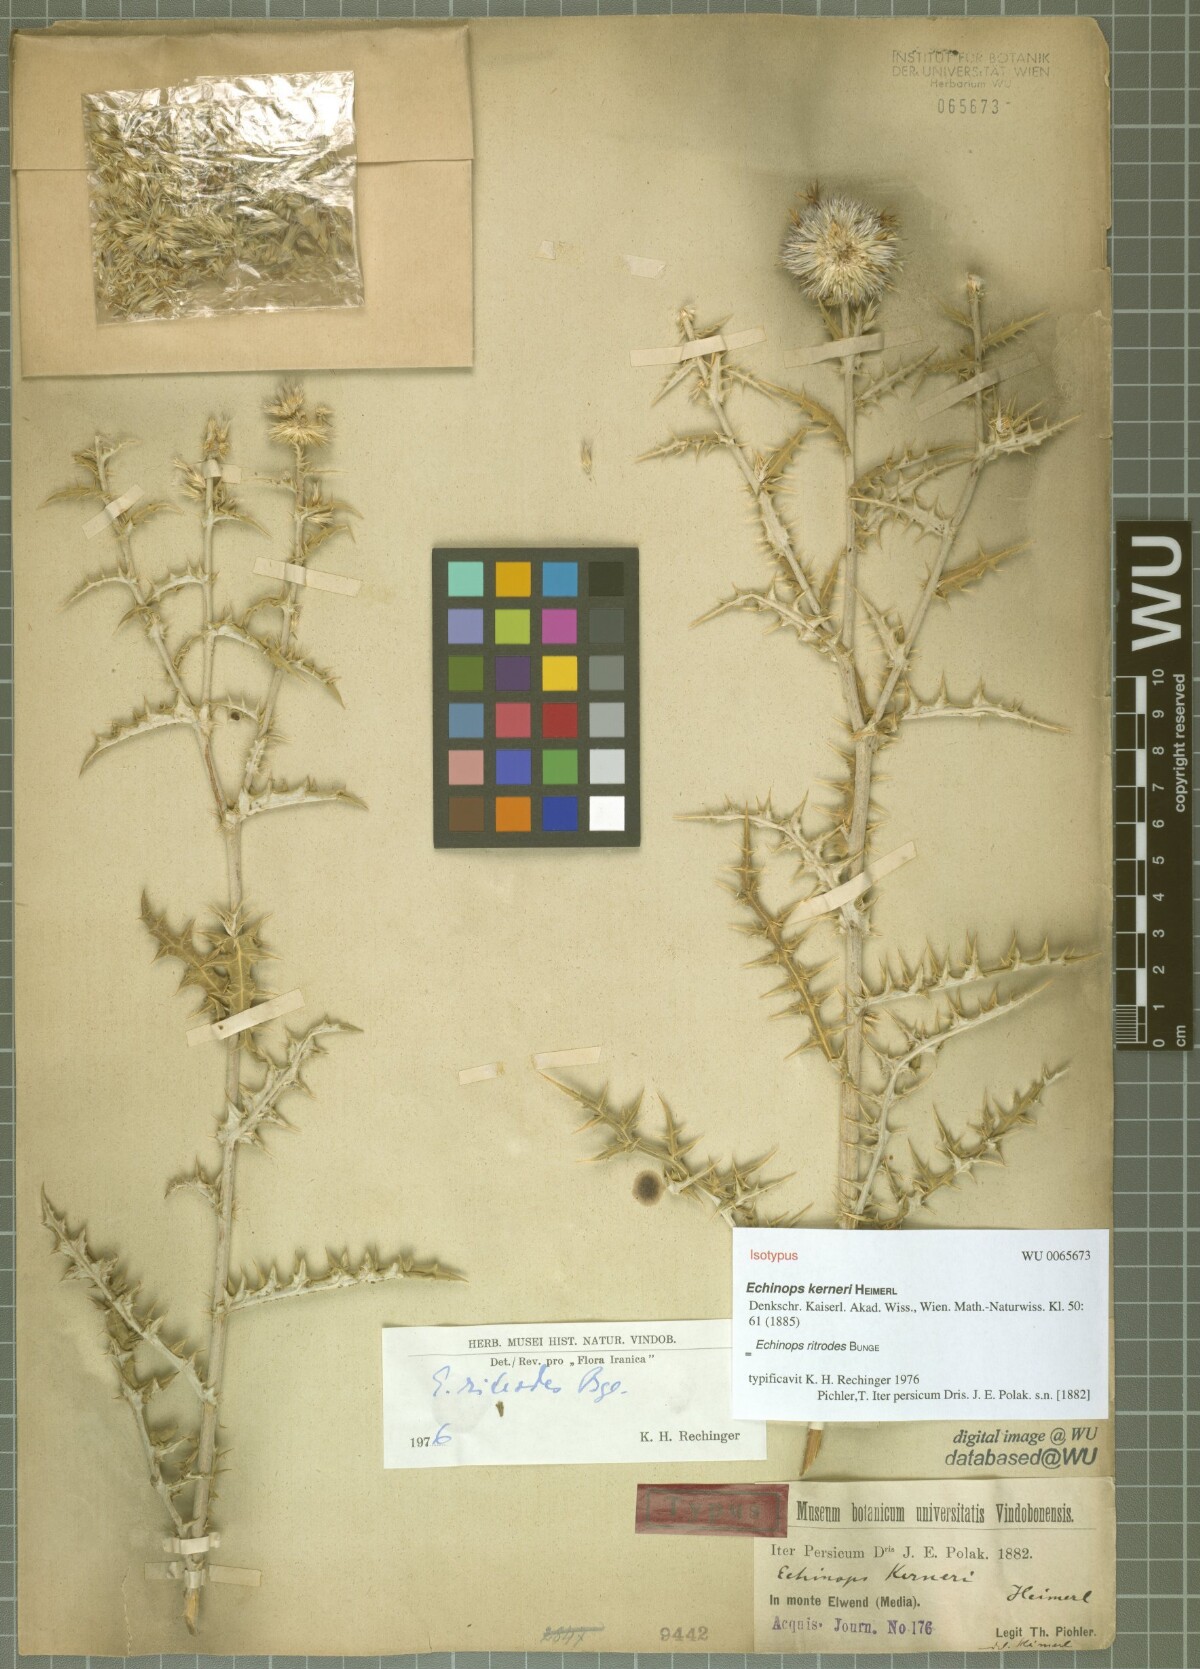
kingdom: Plantae
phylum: Tracheophyta
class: Magnoliopsida
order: Asterales
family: Asteraceae
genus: Echinops
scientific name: Echinops kerneri
